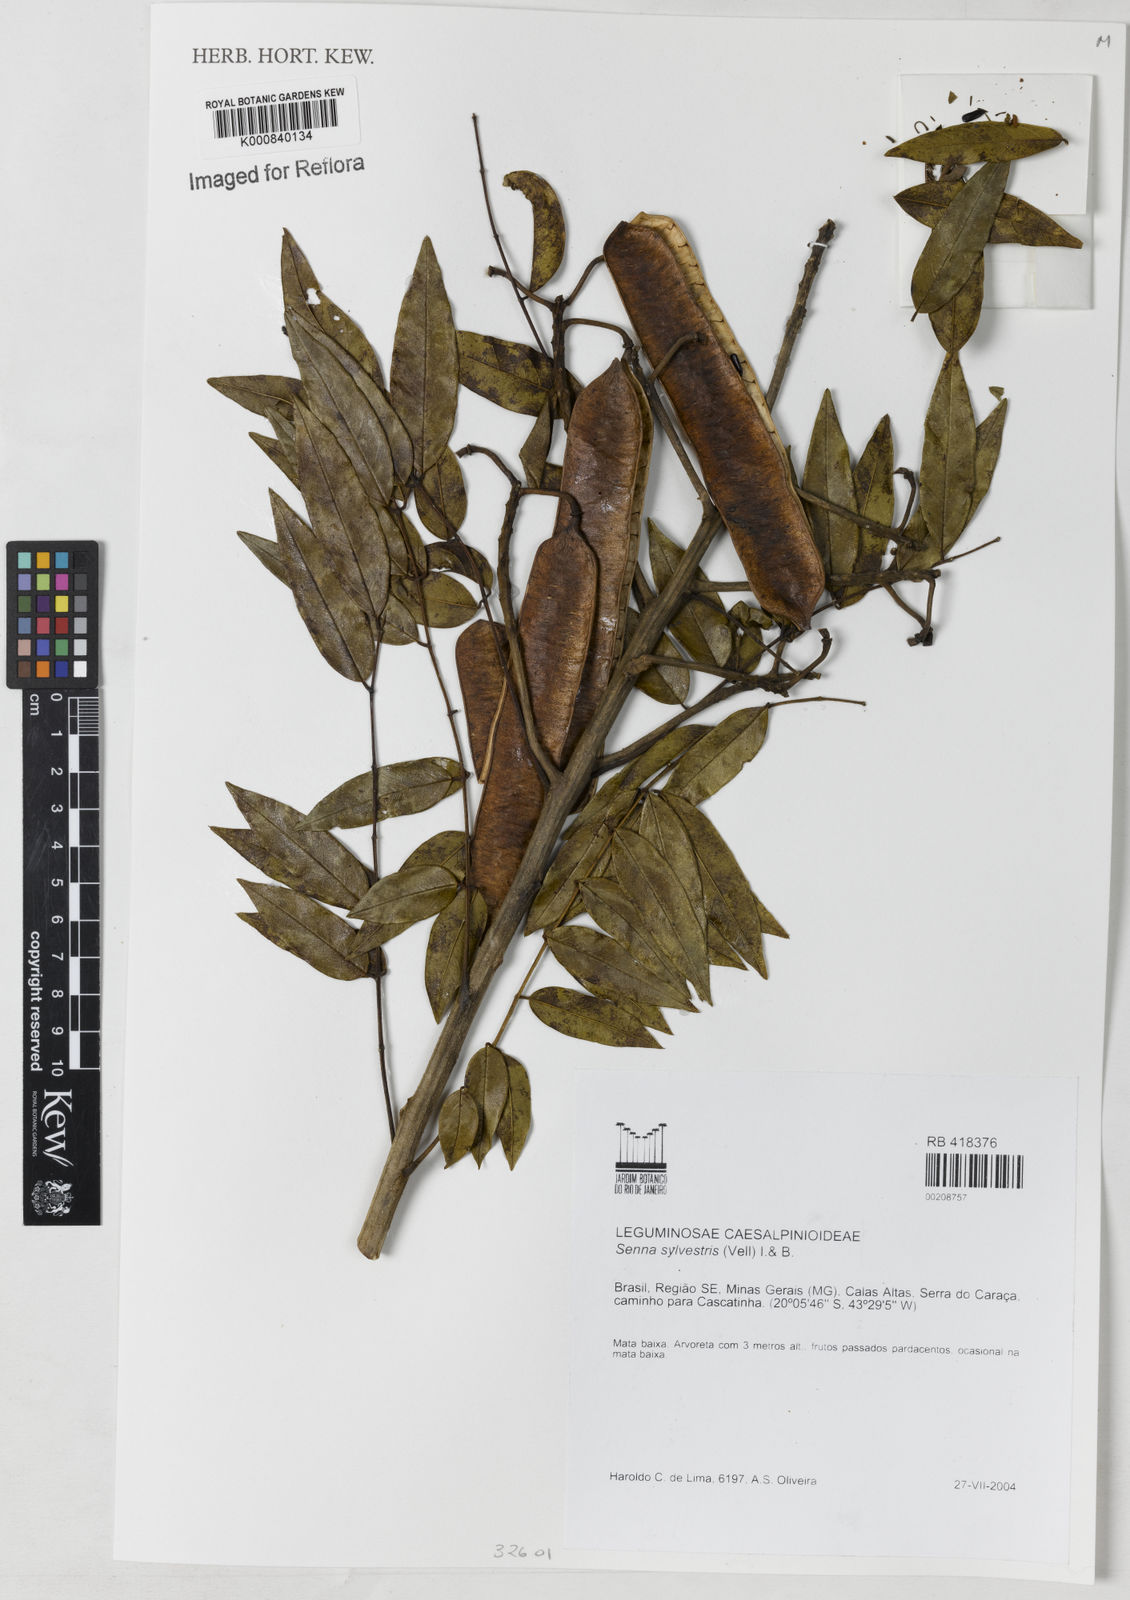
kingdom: Plantae
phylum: Tracheophyta
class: Magnoliopsida
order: Fabales
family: Fabaceae
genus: Senna
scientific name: Senna silvestris
